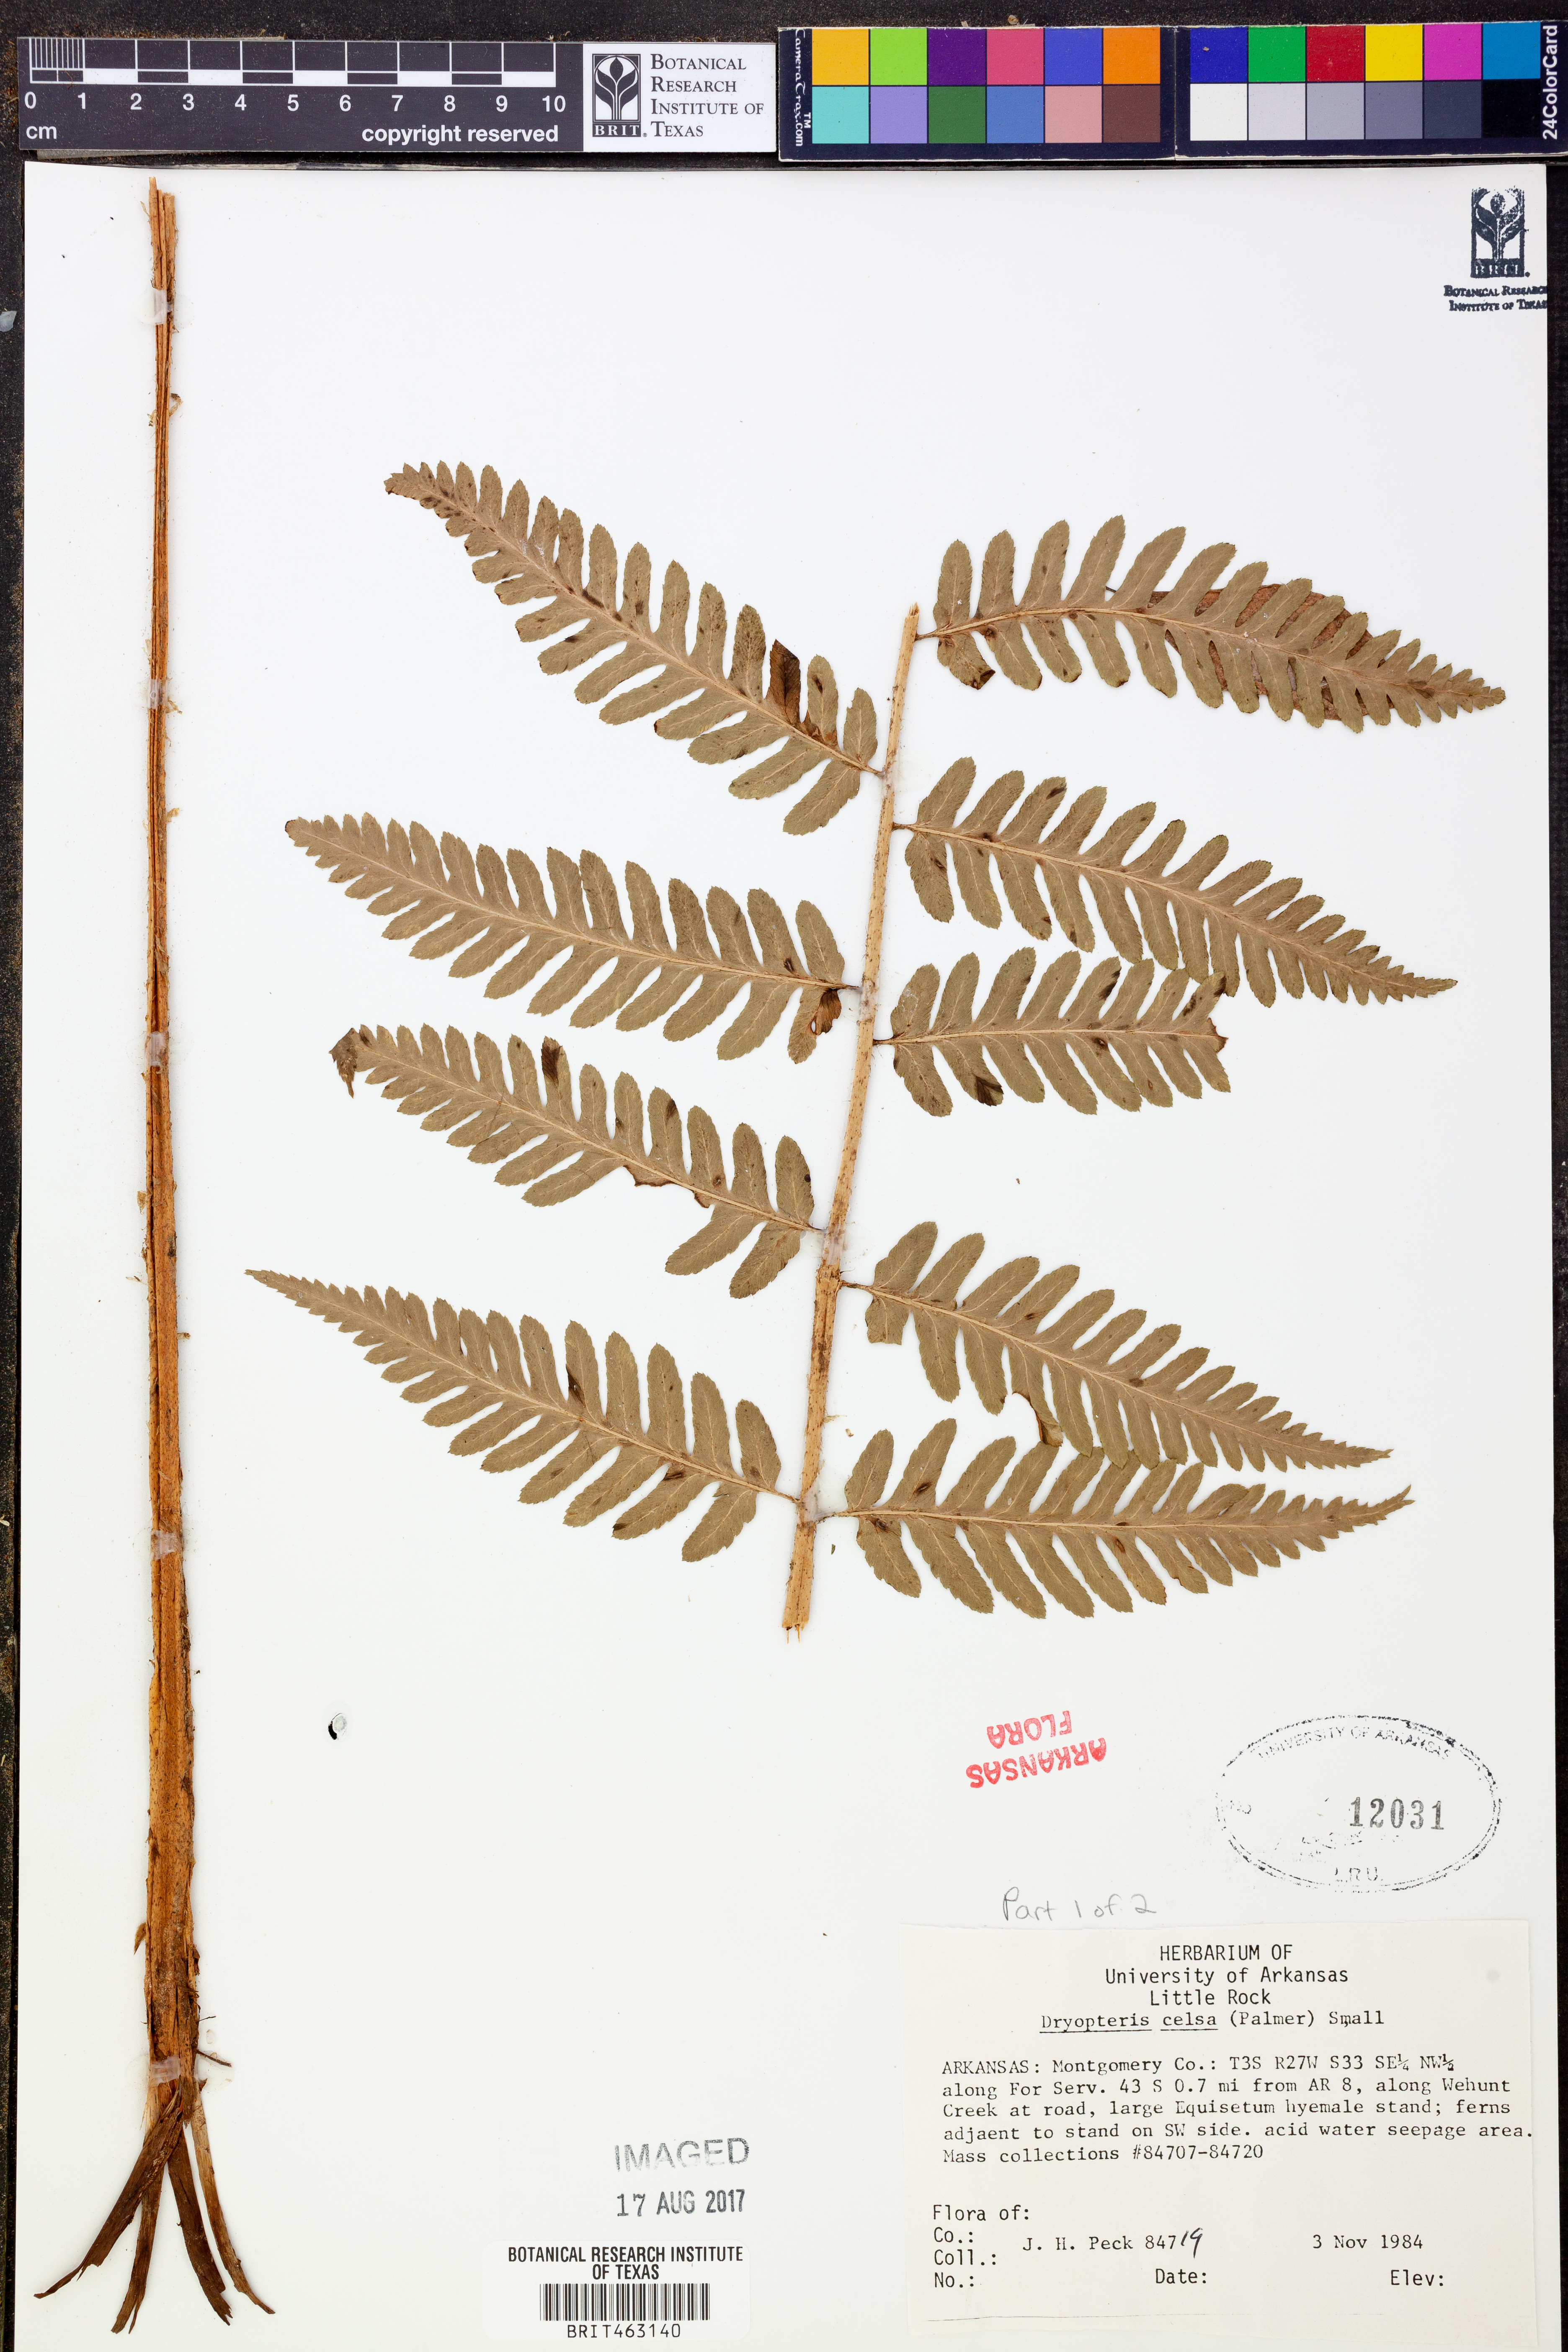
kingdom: Plantae
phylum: Tracheophyta
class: Polypodiopsida
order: Polypodiales
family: Dryopteridaceae
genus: Dryopteris
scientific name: Dryopteris celsa
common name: Log fern
